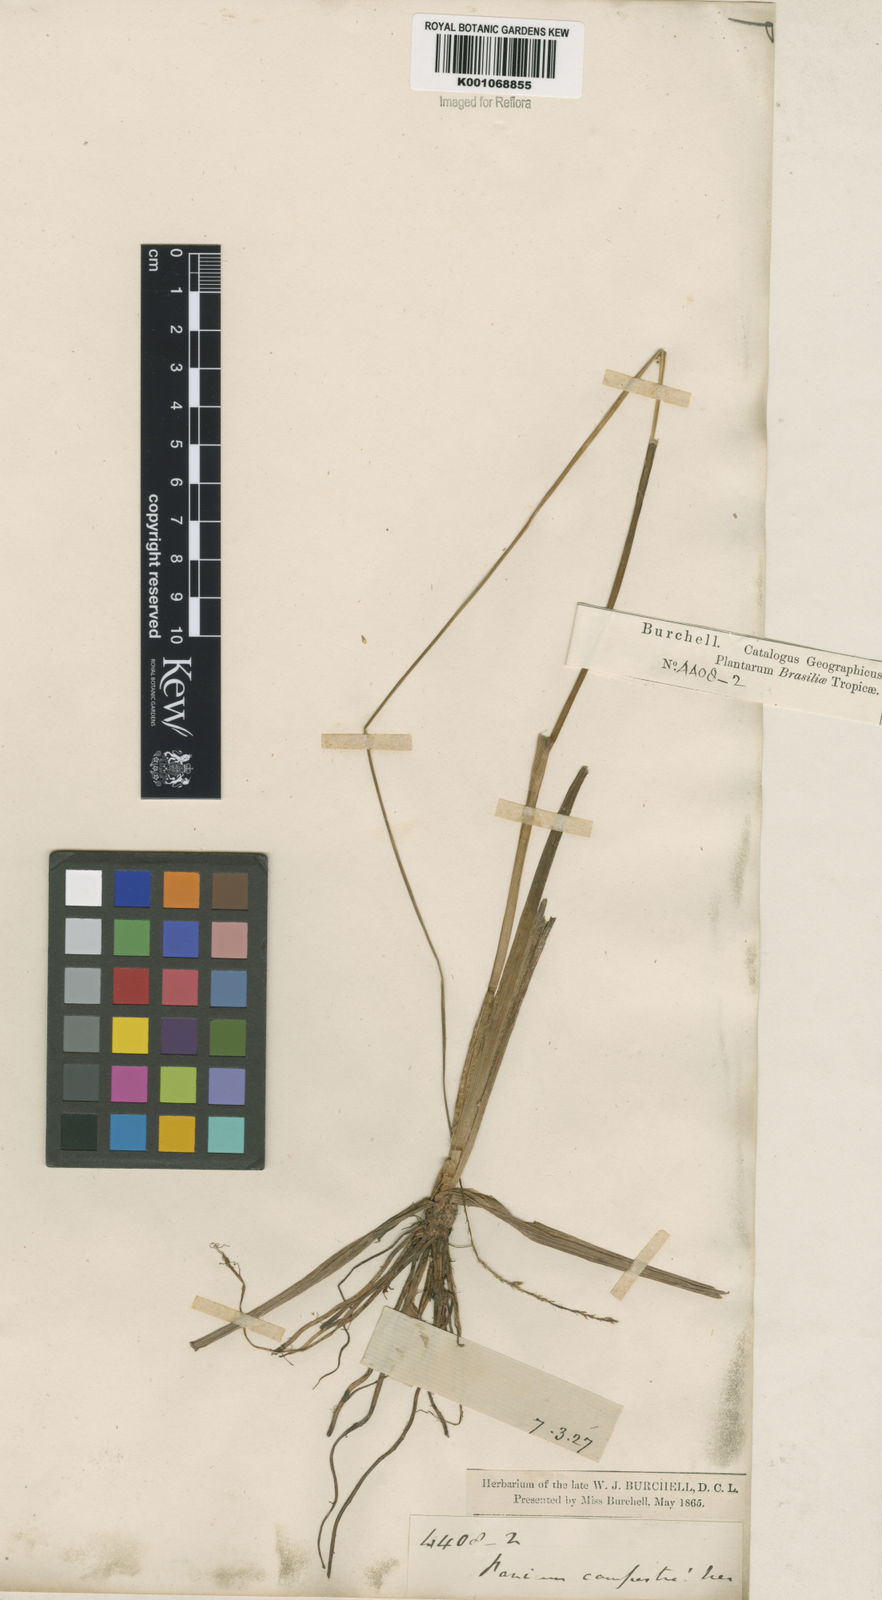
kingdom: Plantae
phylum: Tracheophyta
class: Liliopsida
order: Poales
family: Poaceae
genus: Sacciolepis
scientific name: Sacciolepis vilvoides
